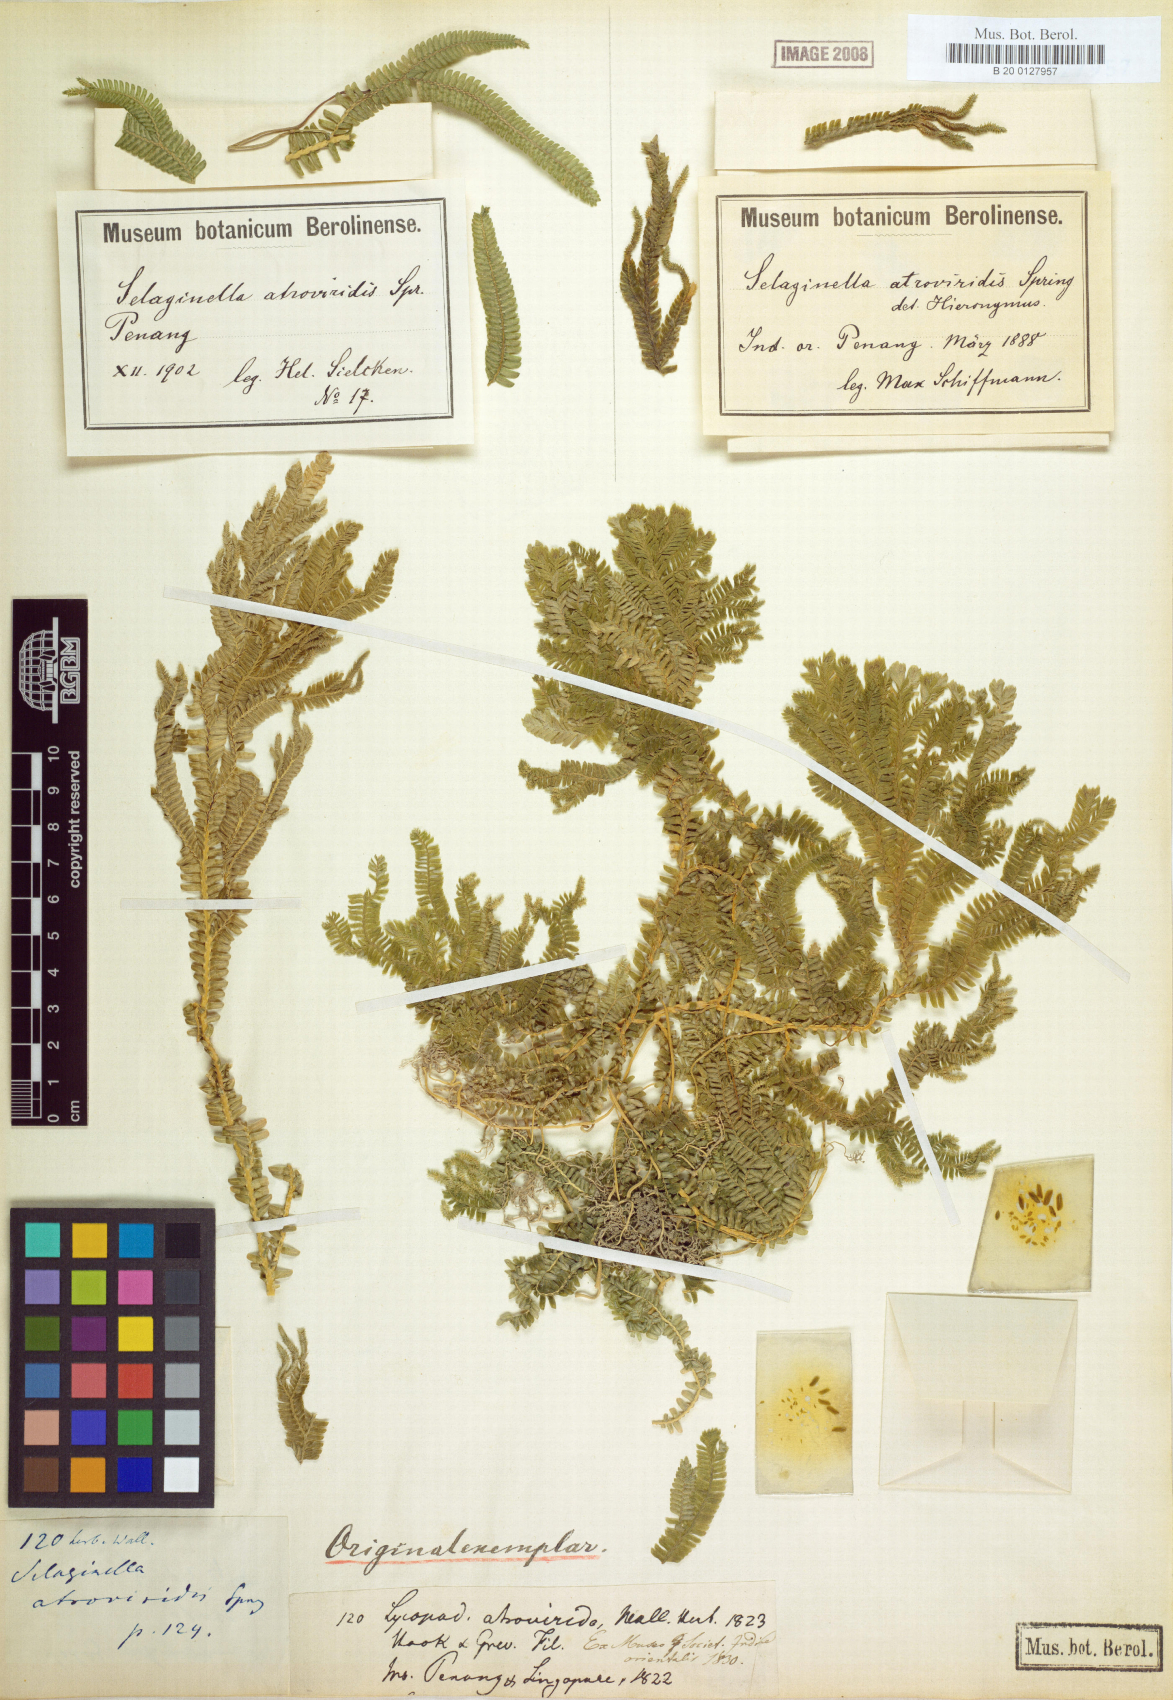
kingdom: Plantae
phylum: Tracheophyta
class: Lycopodiopsida
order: Selaginellales
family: Selaginellaceae
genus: Selaginella
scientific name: Selaginella intermedia
